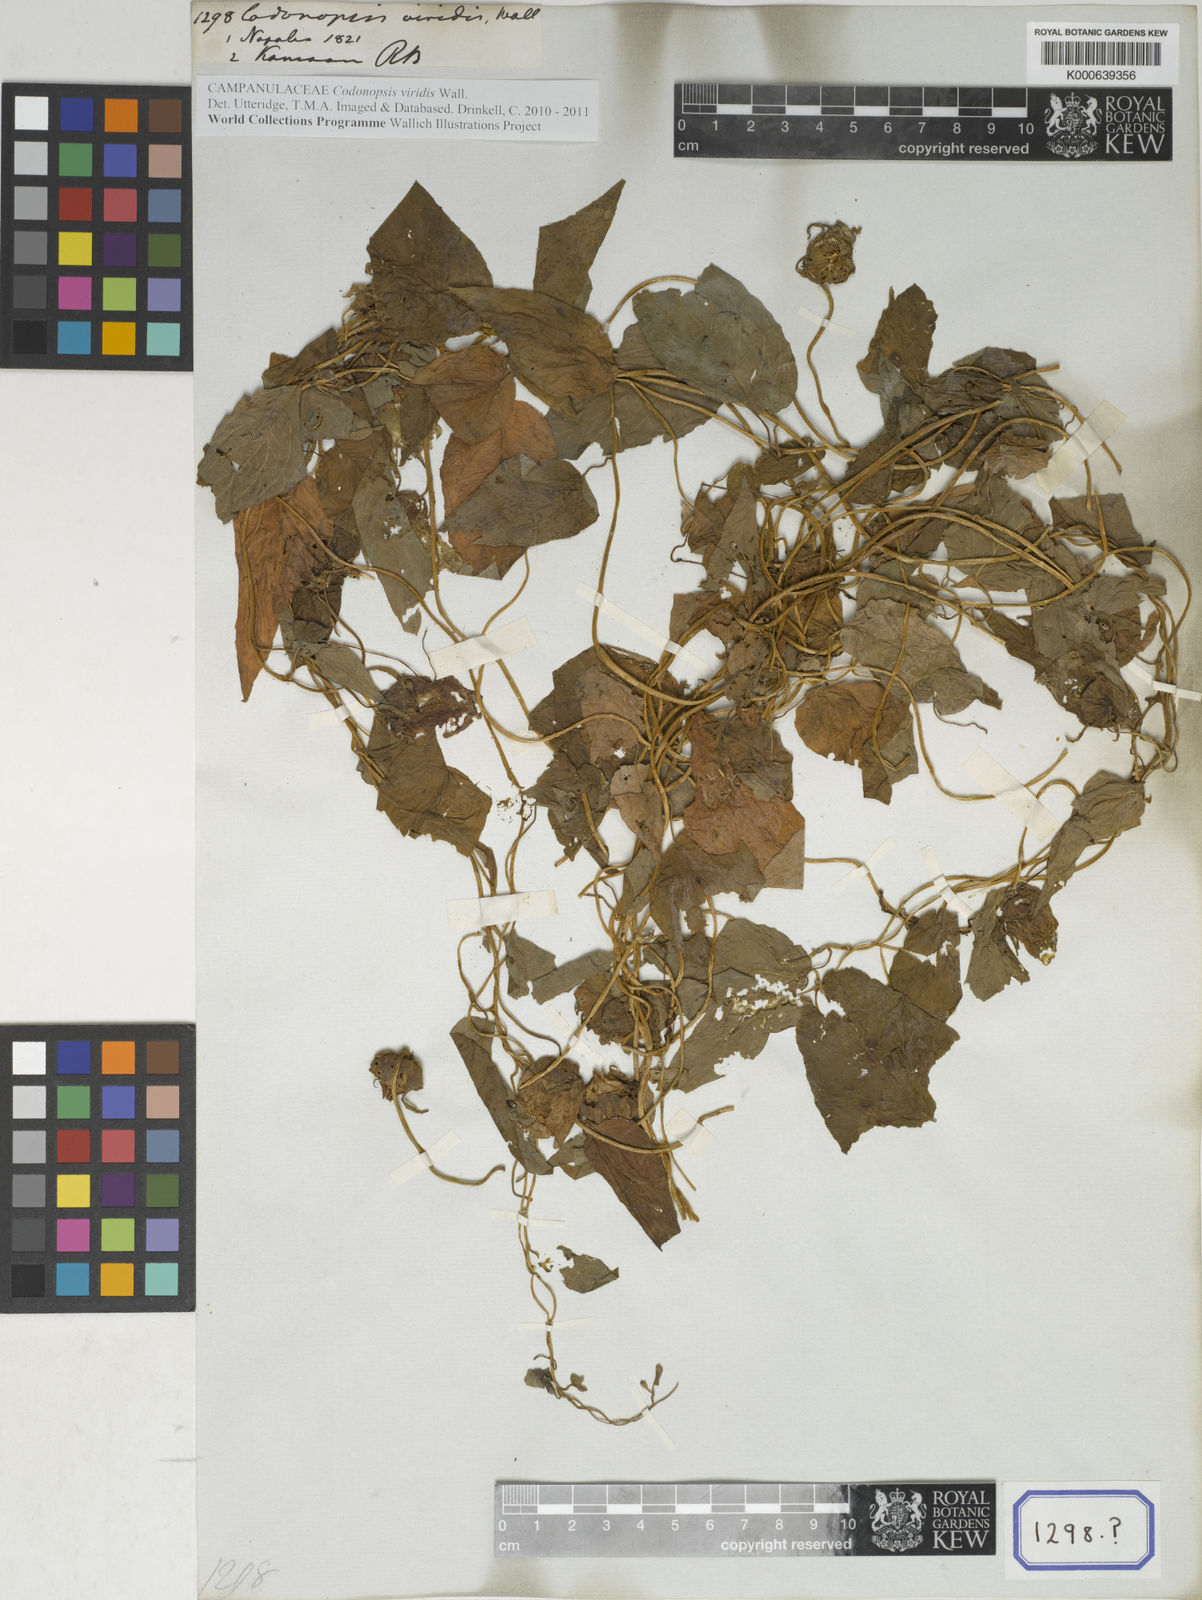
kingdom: Plantae
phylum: Tracheophyta
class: Magnoliopsida
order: Asterales
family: Campanulaceae
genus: Codonopsis
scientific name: Codonopsis viridis
